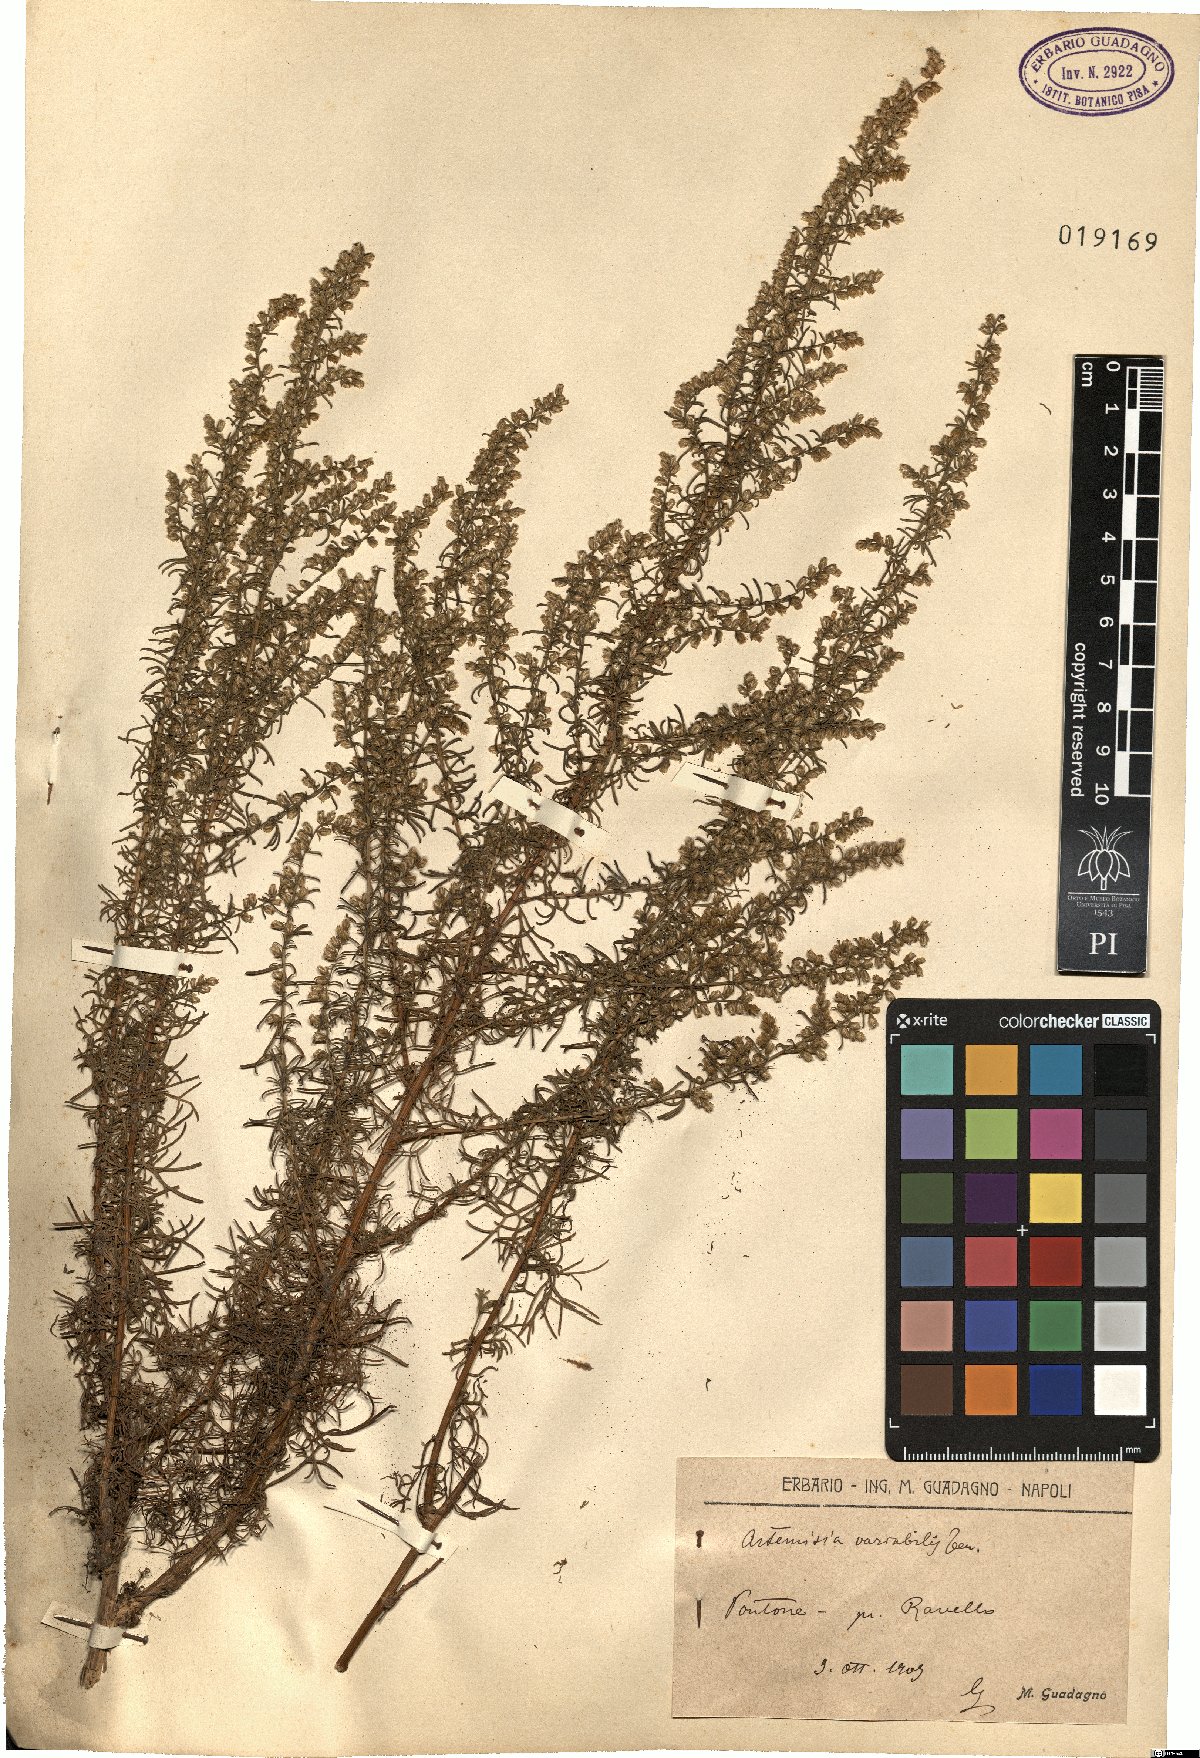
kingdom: Plantae
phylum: Tracheophyta
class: Magnoliopsida
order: Asterales
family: Asteraceae
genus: Artemisia
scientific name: Artemisia campestris
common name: Field wormwood
